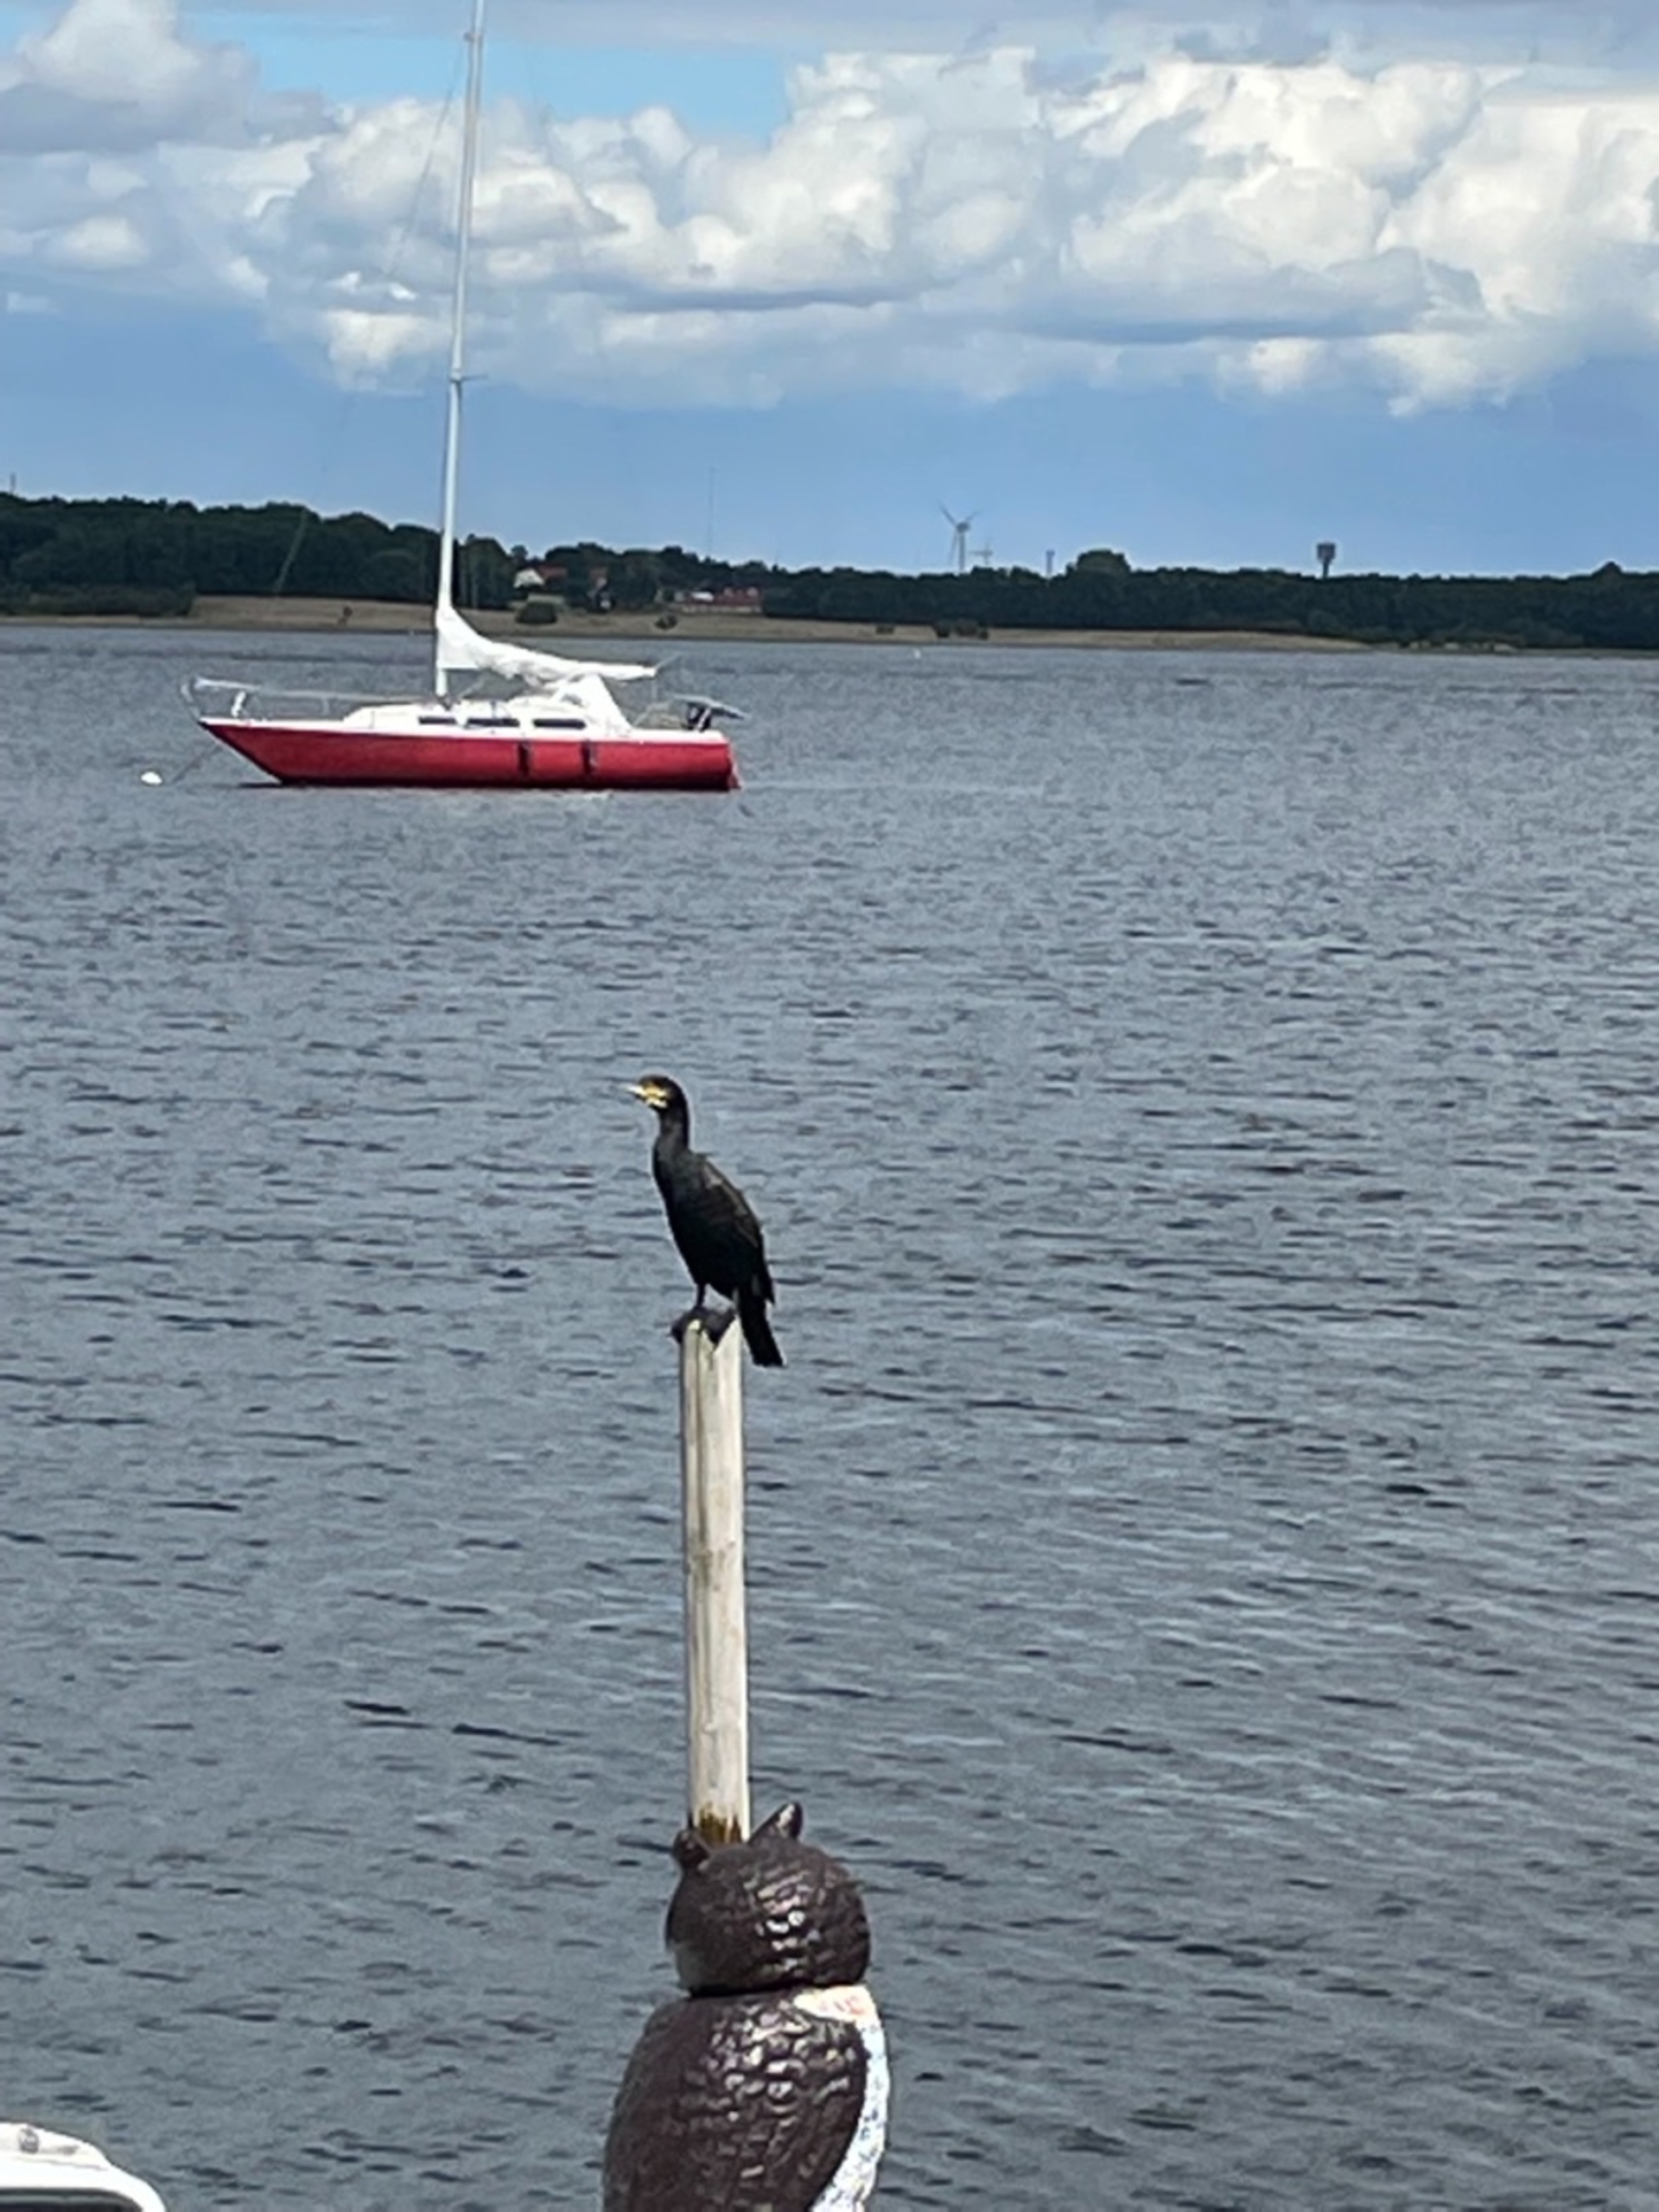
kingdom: Animalia
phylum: Chordata
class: Aves
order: Suliformes
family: Phalacrocoracidae
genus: Phalacrocorax
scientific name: Phalacrocorax carbo
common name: Skarv
